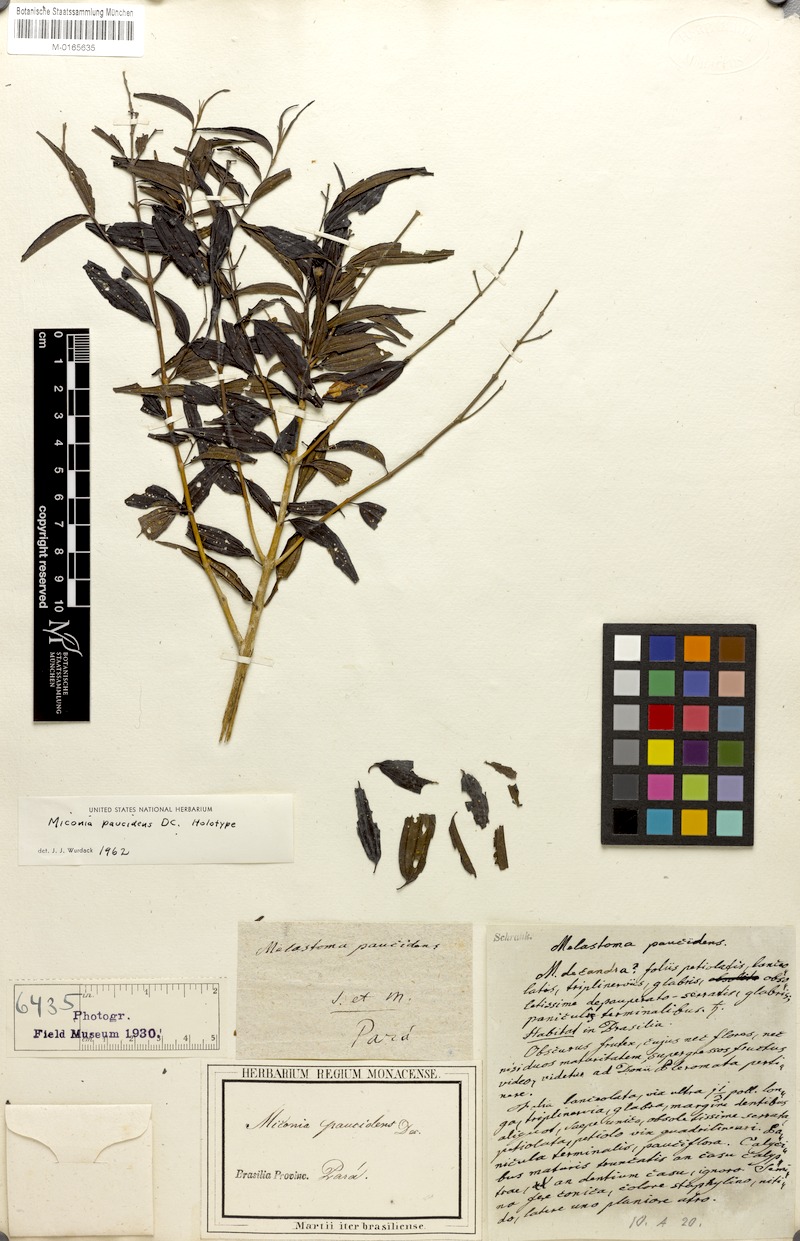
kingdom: Plantae
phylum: Tracheophyta
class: Magnoliopsida
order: Myrtales
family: Melastomataceae
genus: Miconia
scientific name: Miconia paucidens
